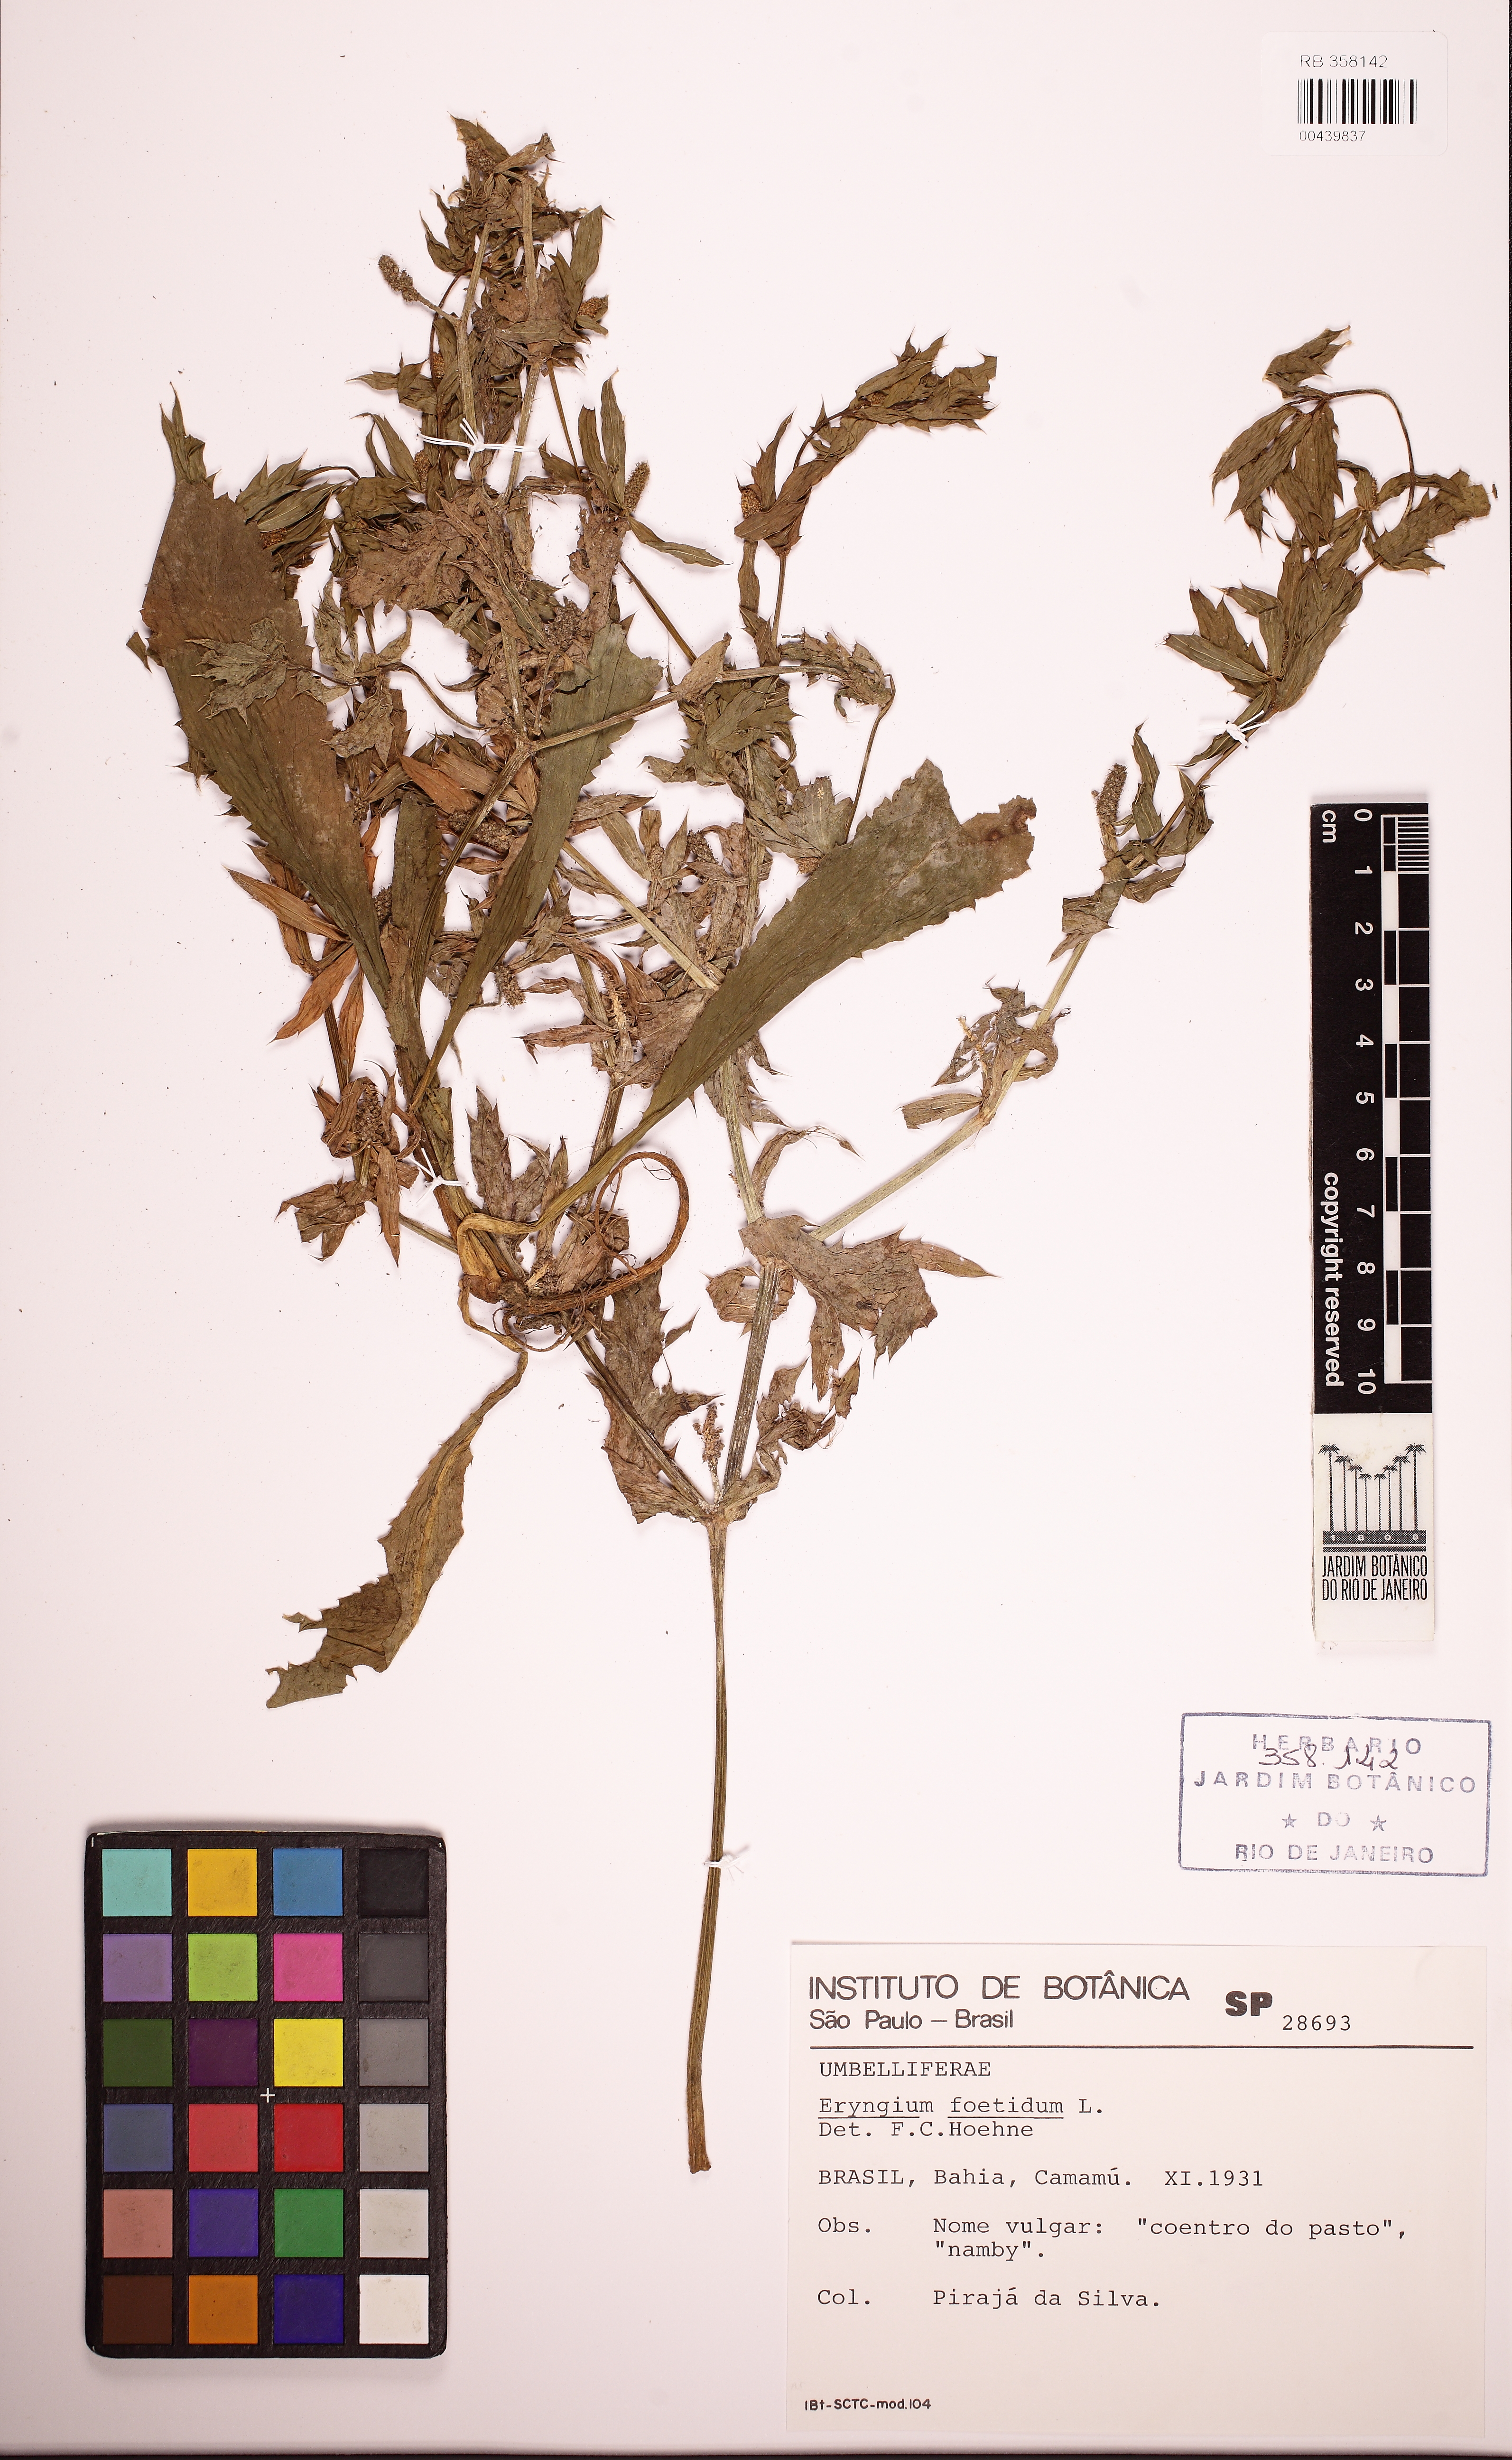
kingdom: Plantae
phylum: Tracheophyta
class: Magnoliopsida
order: Apiales
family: Apiaceae
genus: Eryngium
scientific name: Eryngium foetidum
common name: Fitweed
